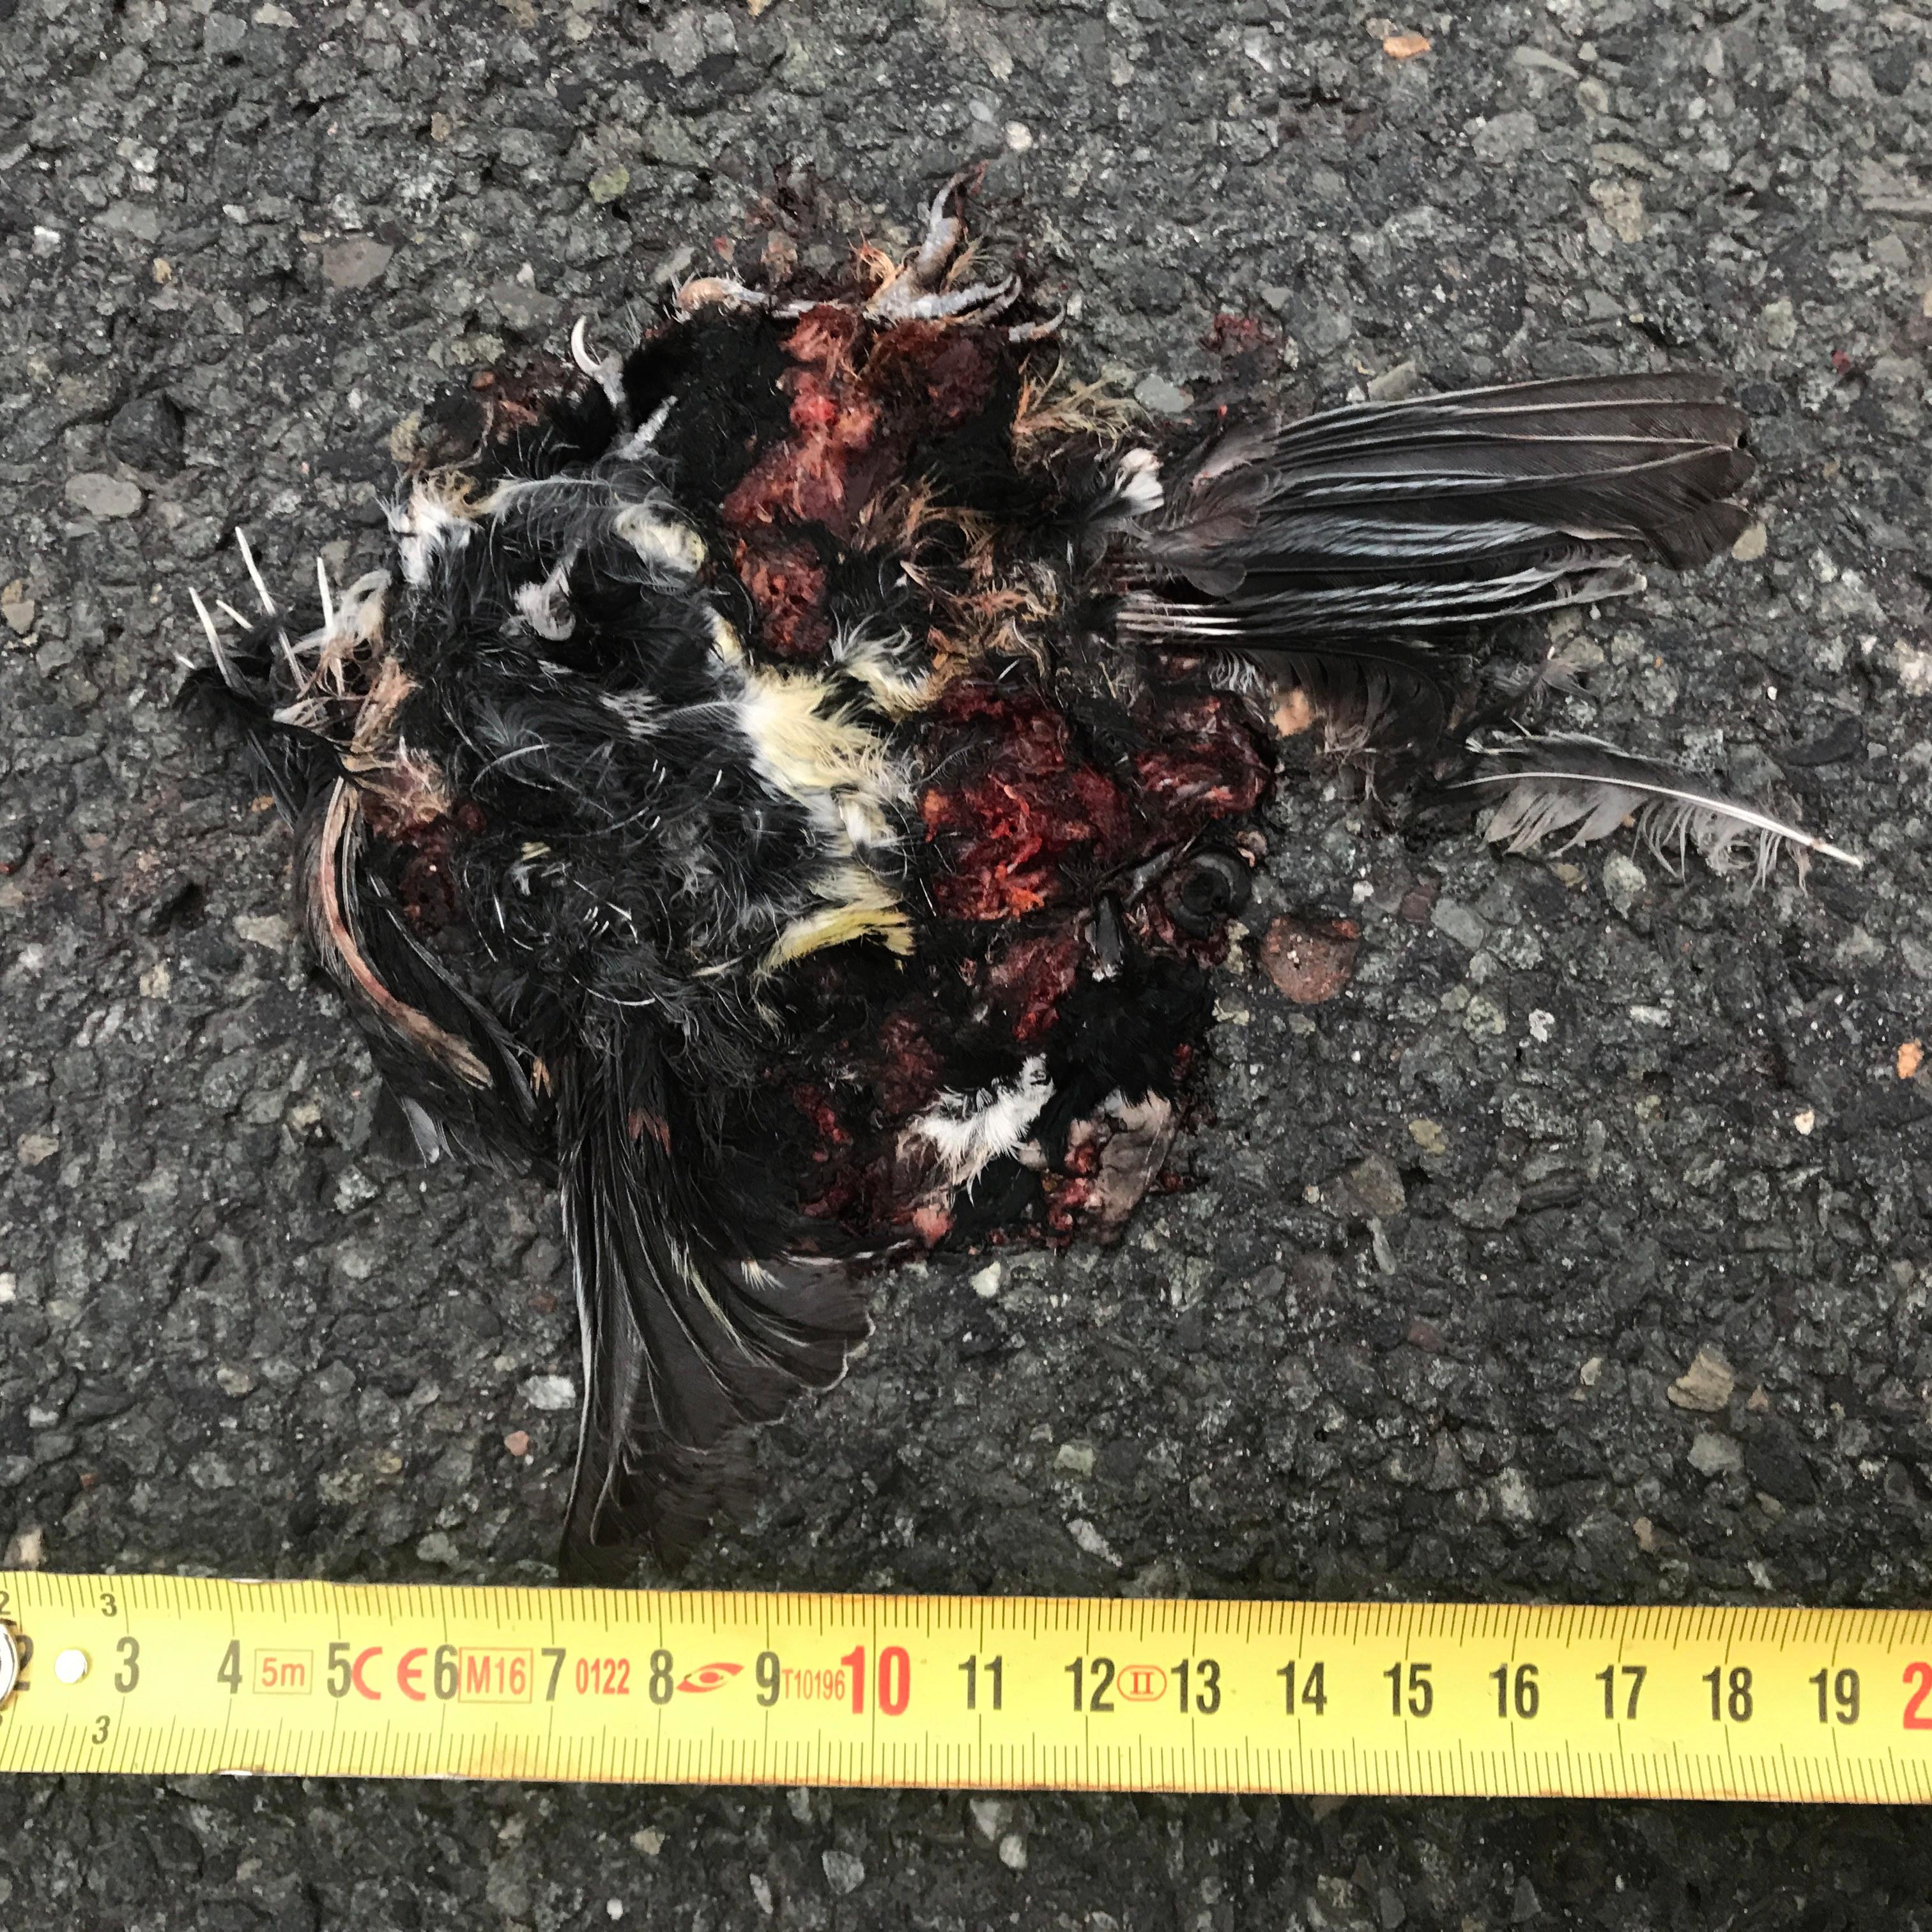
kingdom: Animalia
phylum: Chordata
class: Aves
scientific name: Aves
